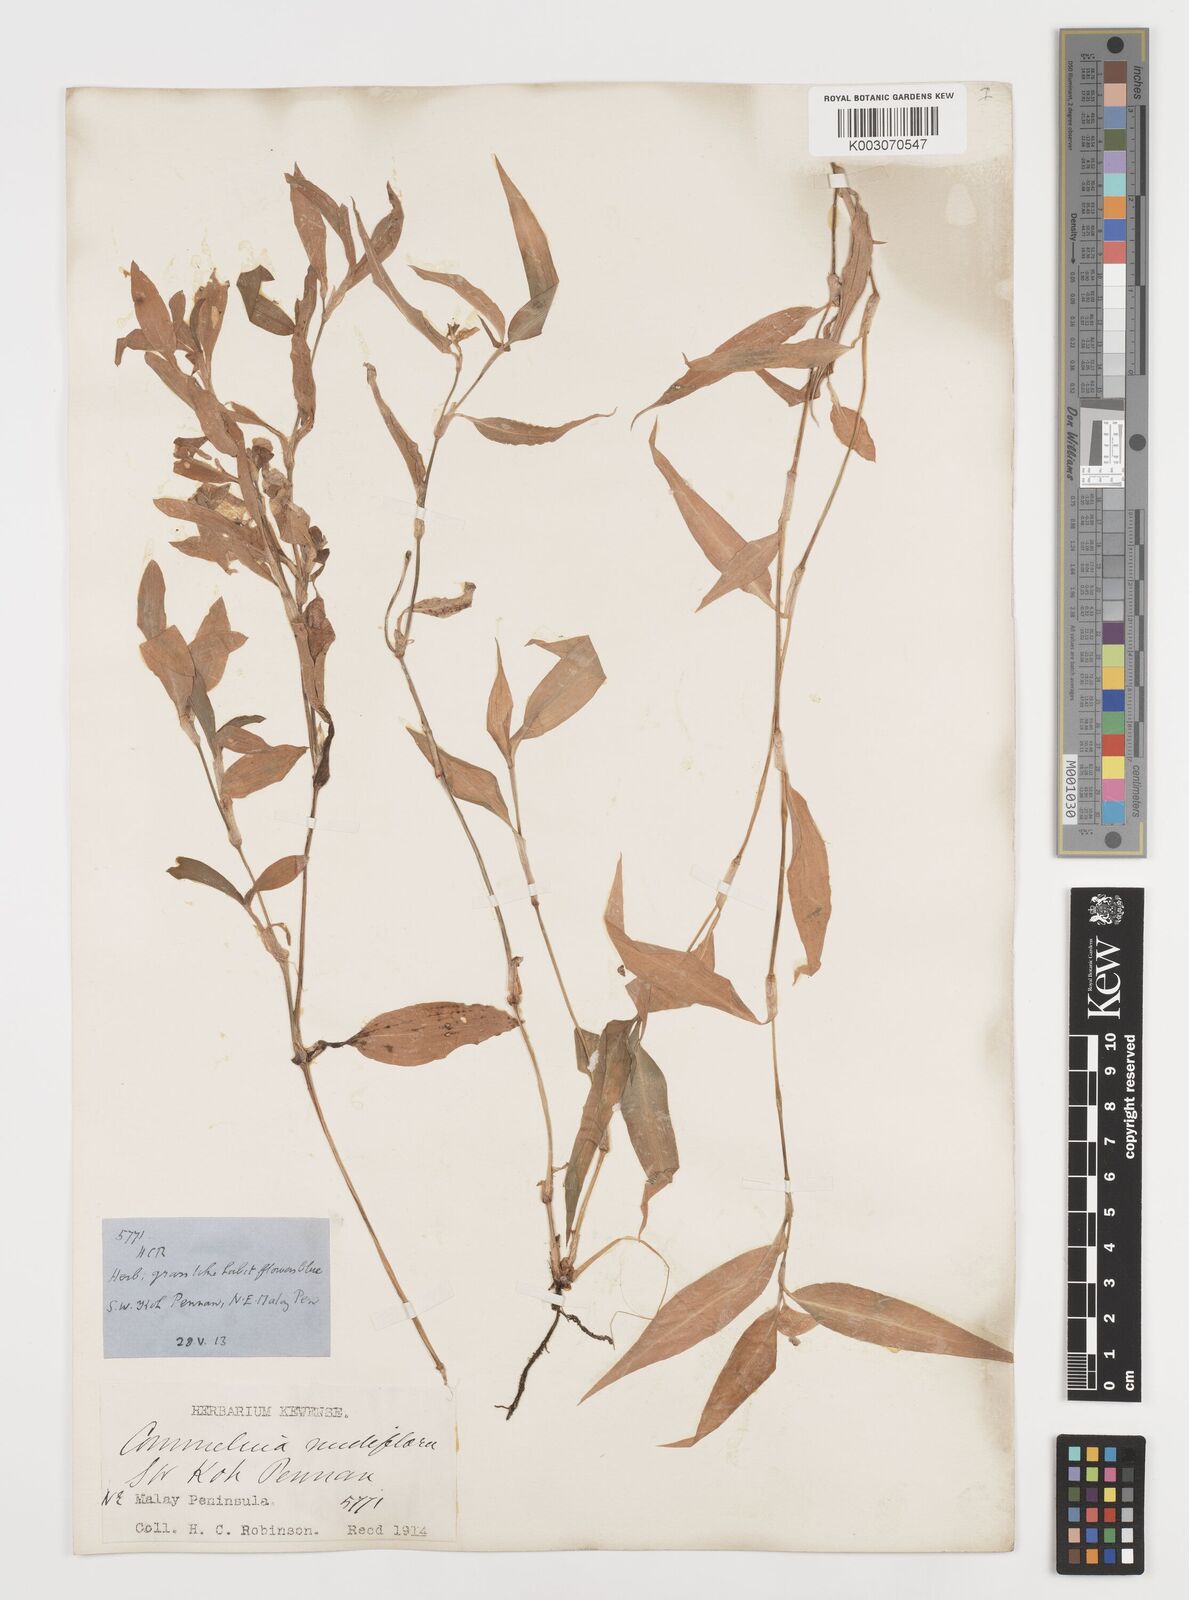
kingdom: Plantae
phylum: Tracheophyta
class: Liliopsida
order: Commelinales
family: Commelinaceae
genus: Commelina
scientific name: Commelina clavata
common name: Willow leaved dayflower
